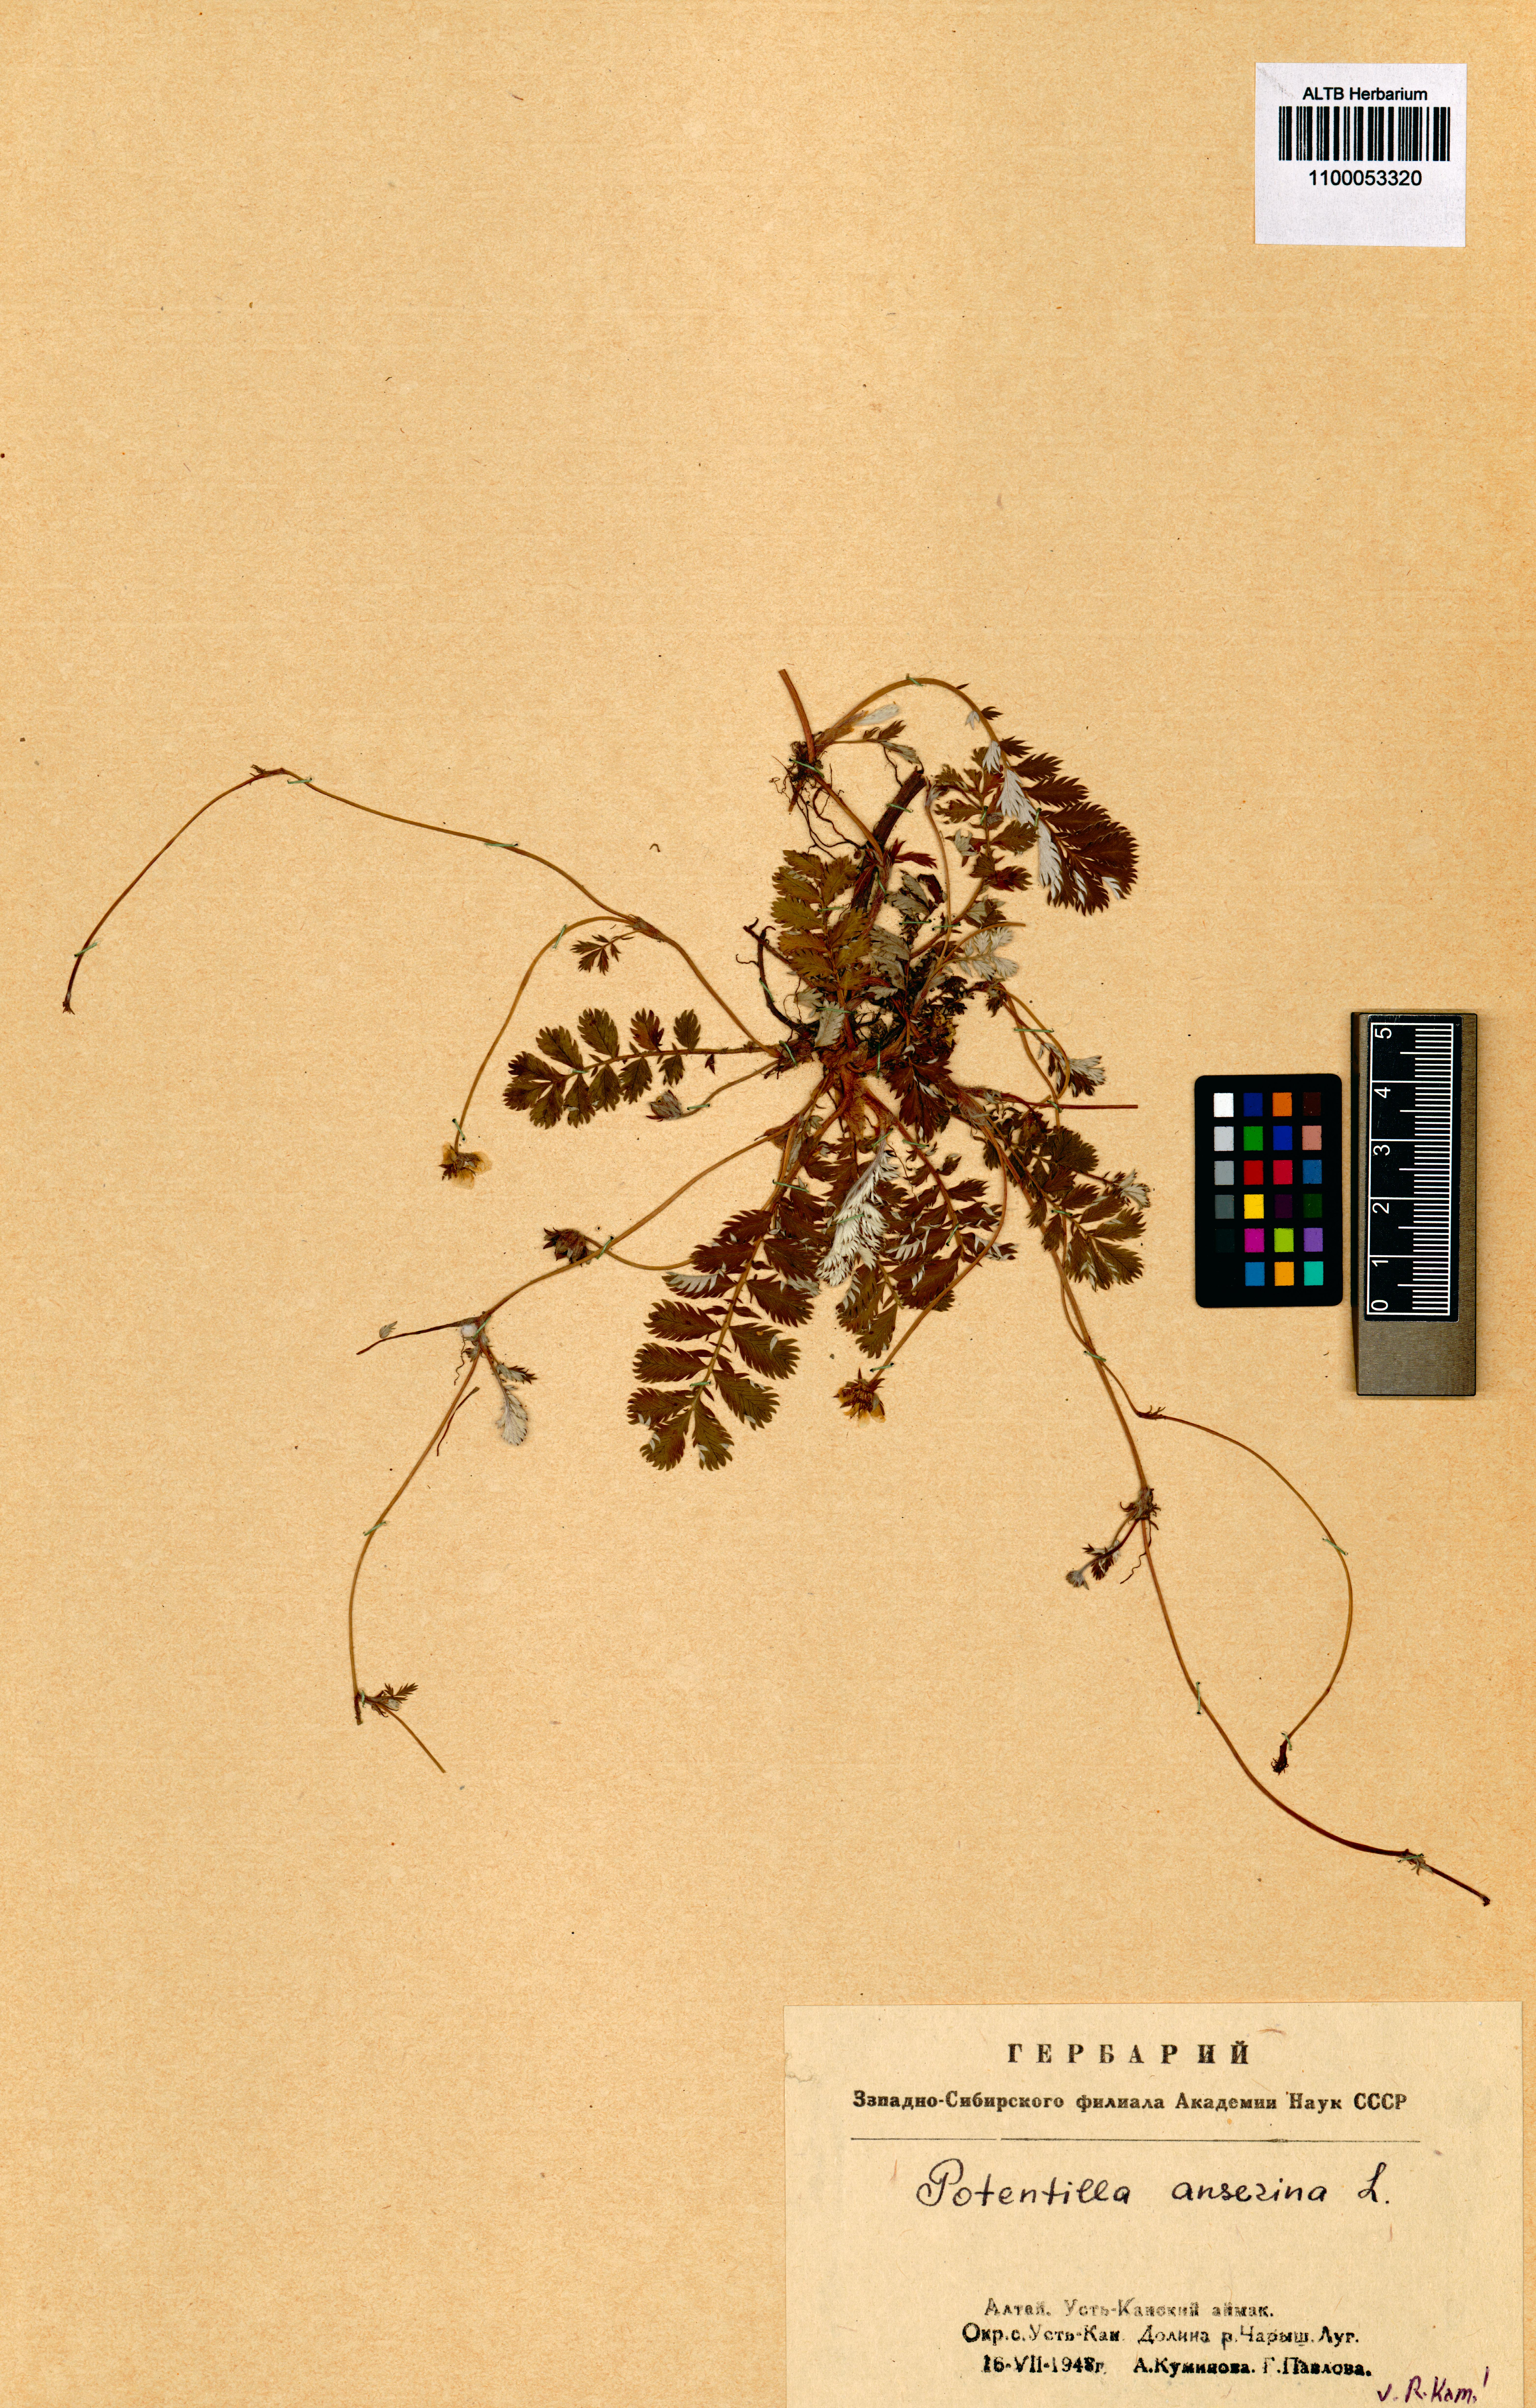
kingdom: Plantae
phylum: Tracheophyta
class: Magnoliopsida
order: Rosales
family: Rosaceae
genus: Argentina
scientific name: Argentina anserina
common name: Common silverweed
